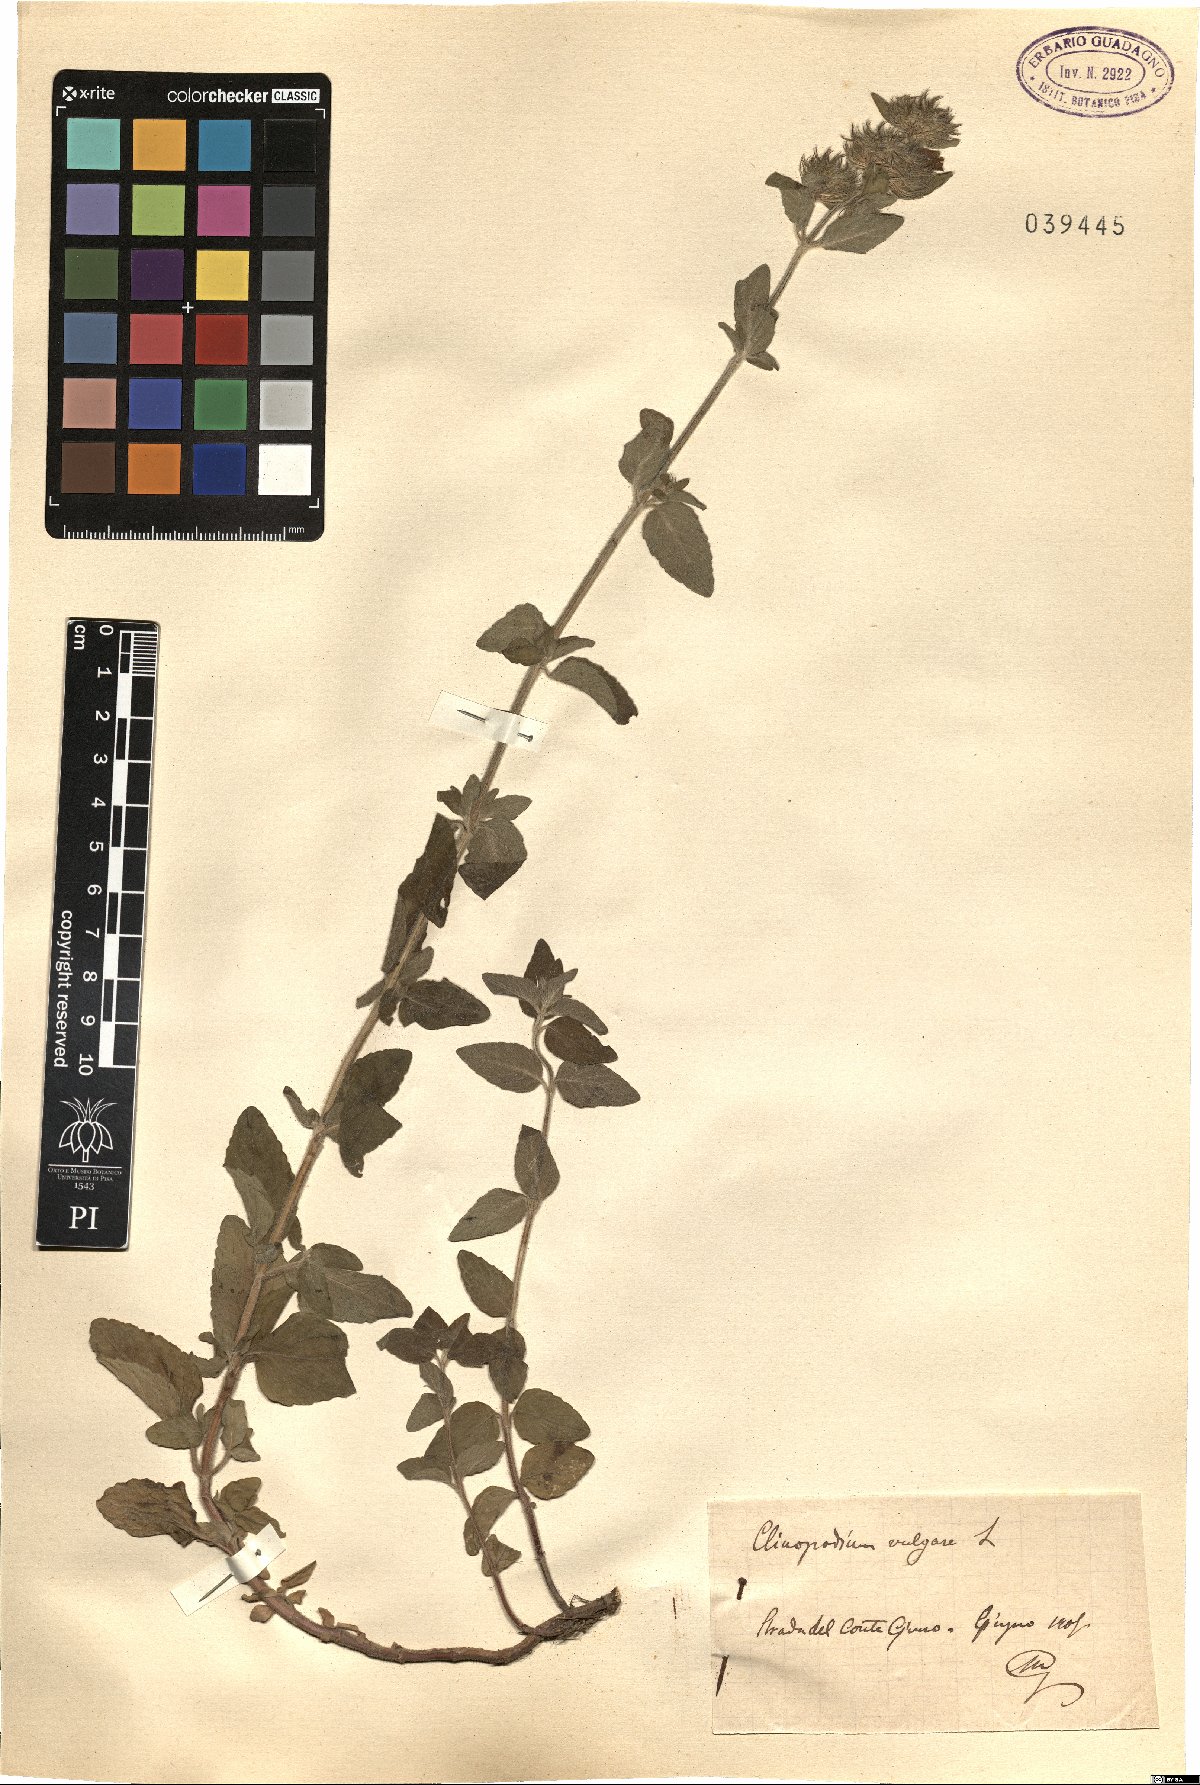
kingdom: Plantae
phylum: Tracheophyta
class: Magnoliopsida
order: Lamiales
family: Lamiaceae
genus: Clinopodium
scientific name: Clinopodium vulgare
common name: Wild basil
